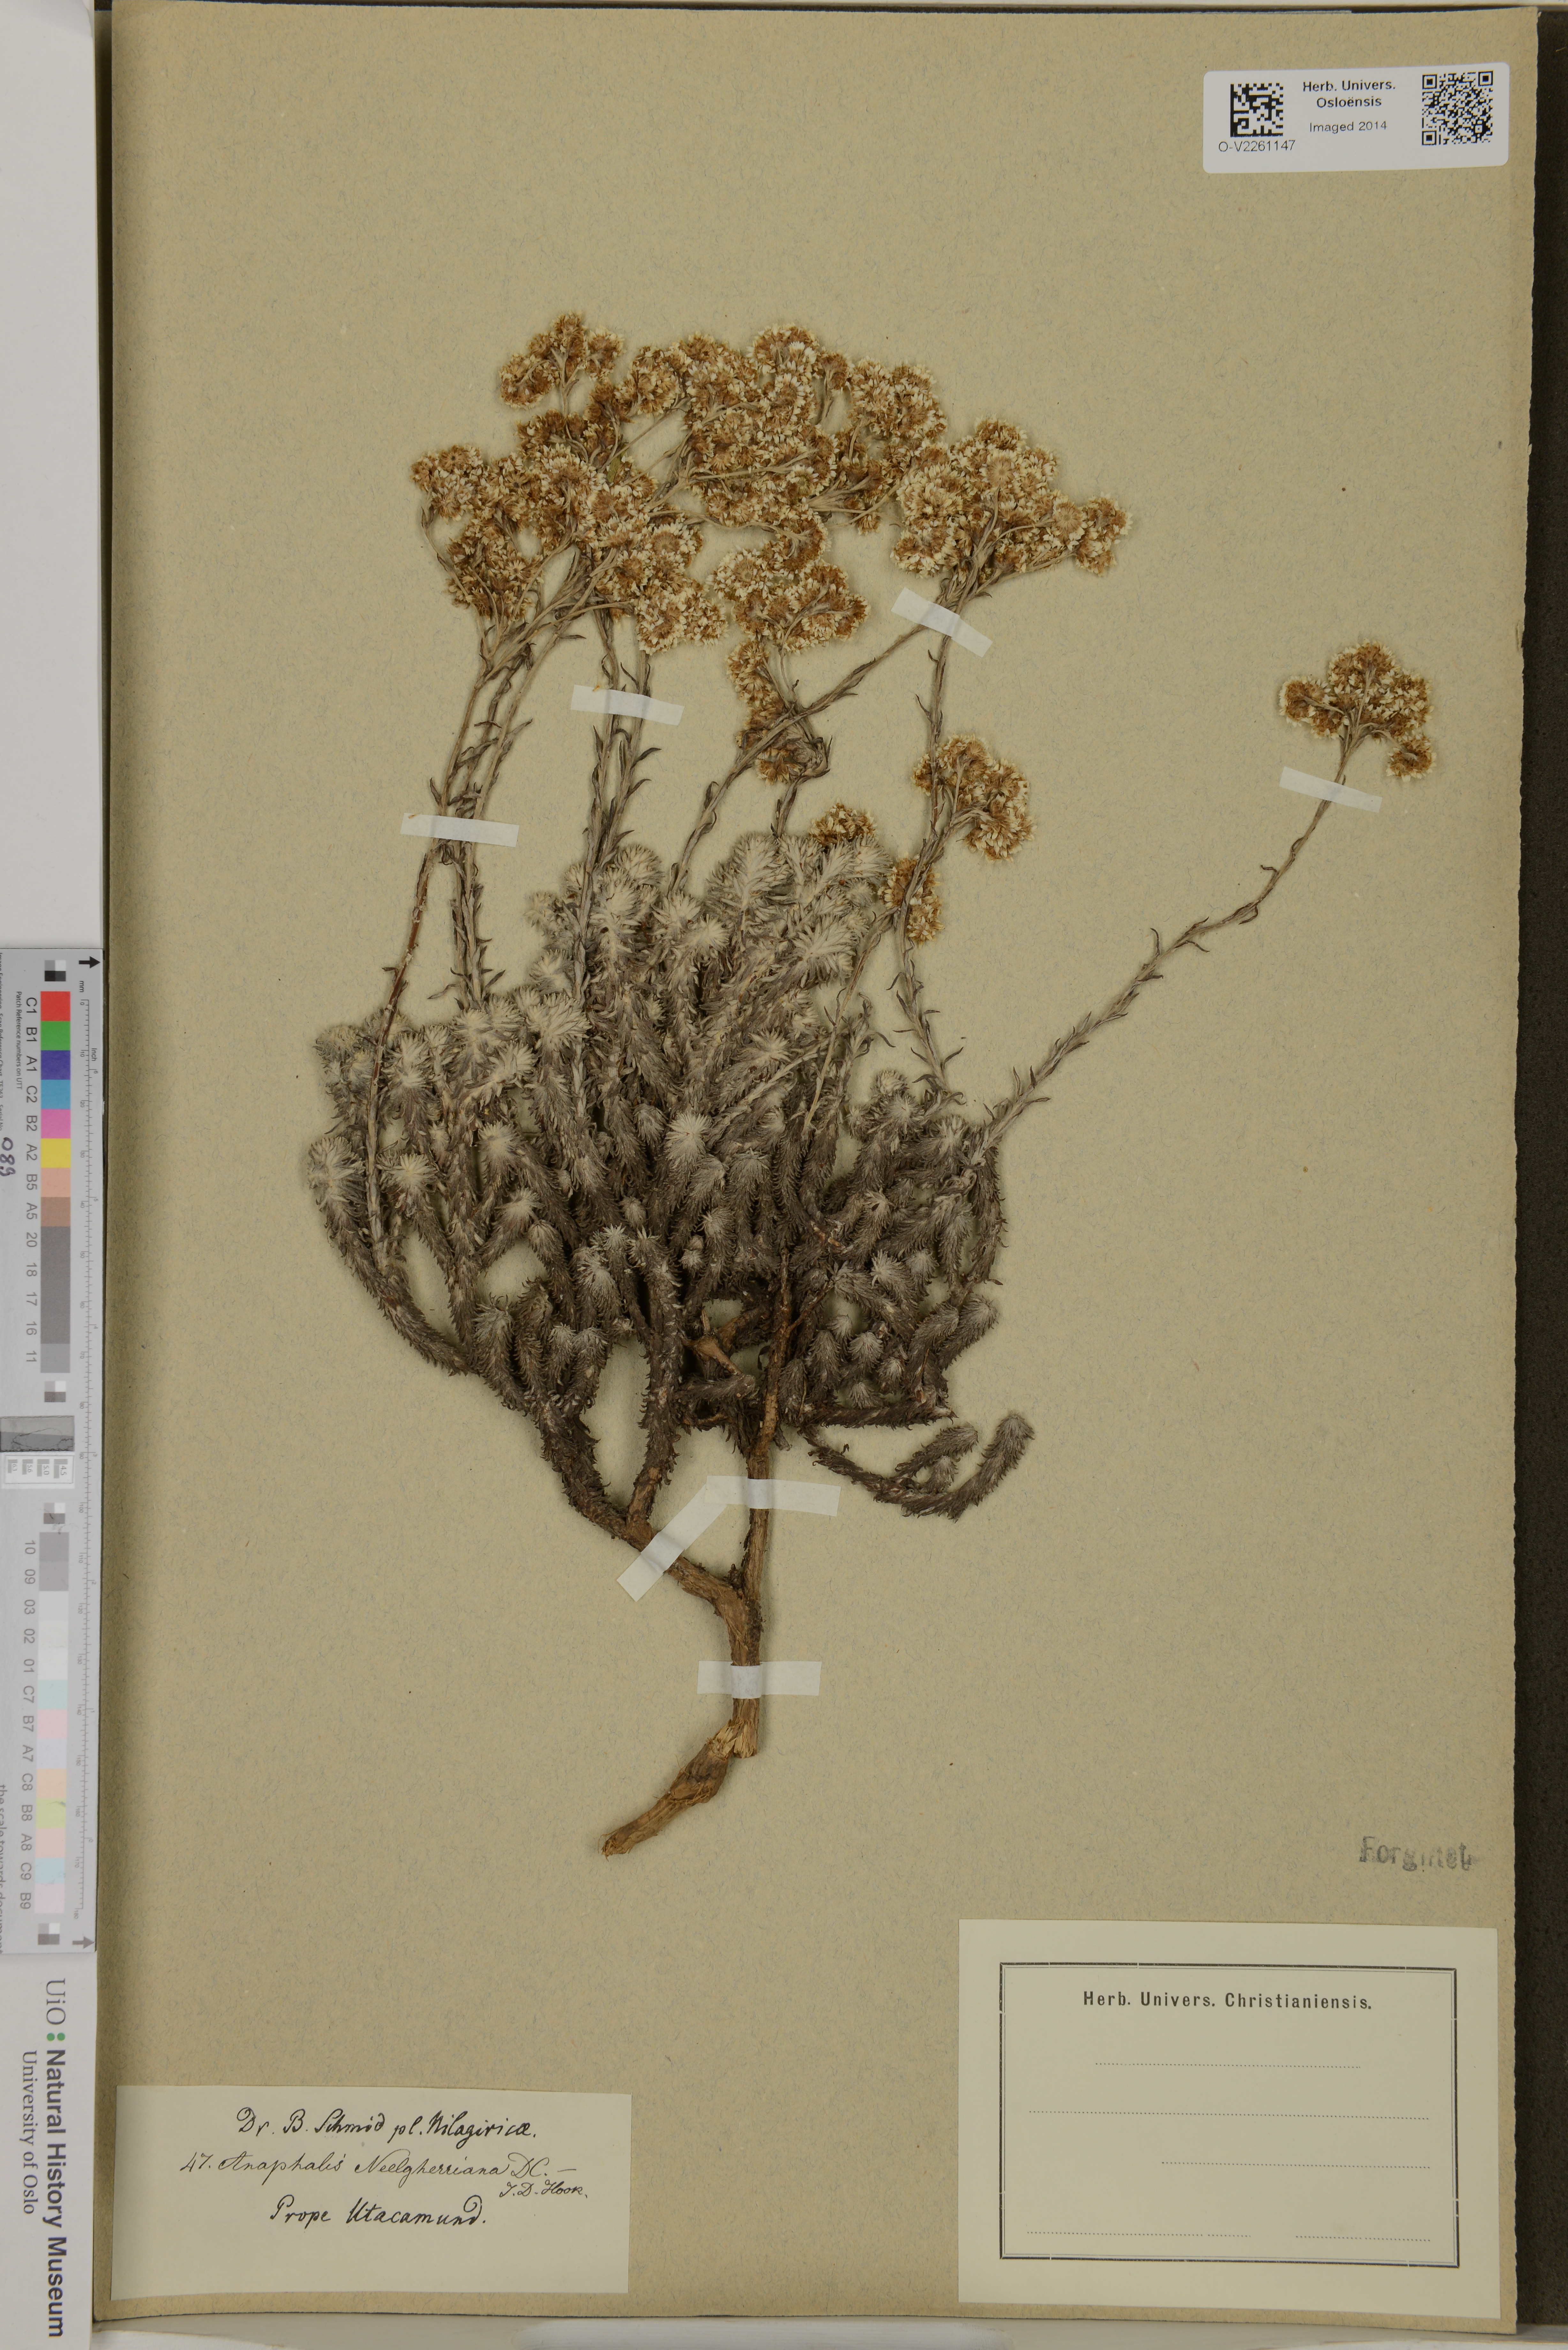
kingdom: Plantae
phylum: Tracheophyta
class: Magnoliopsida
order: Asterales
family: Asteraceae
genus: Anaphalis
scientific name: Anaphalis neelgerryana
